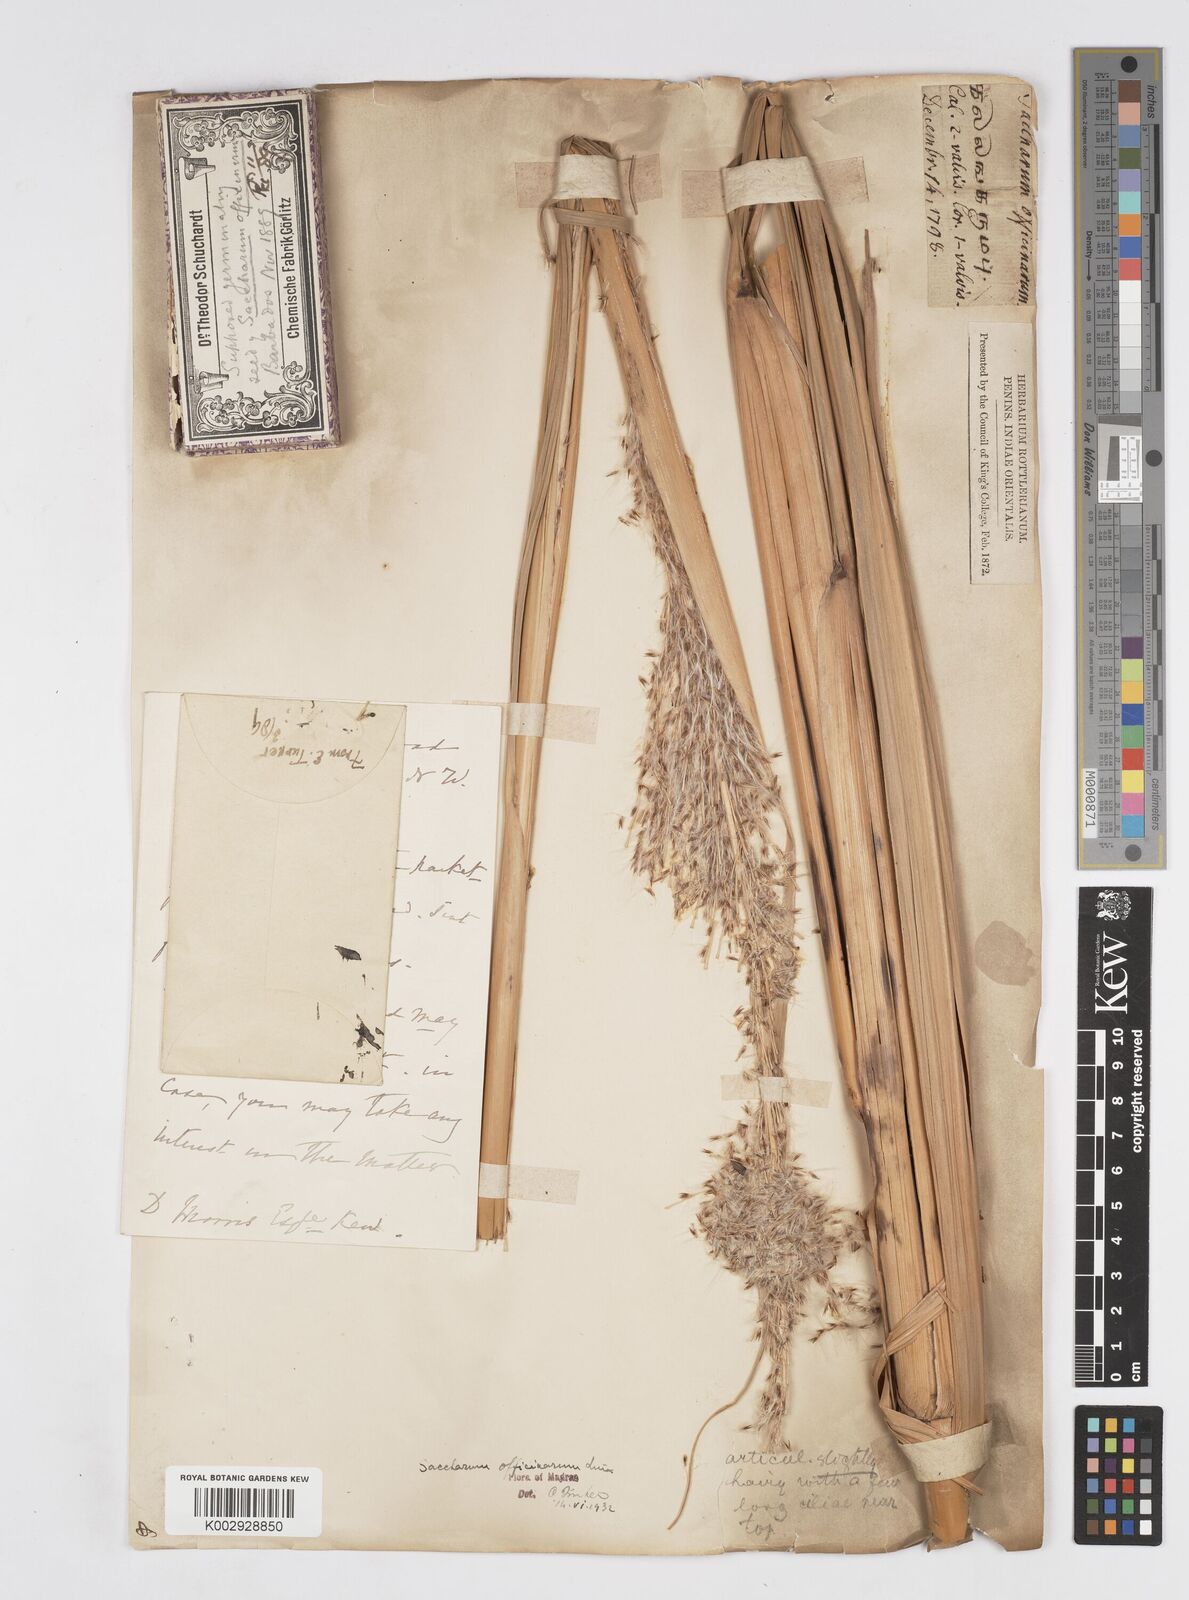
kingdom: Plantae
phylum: Tracheophyta
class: Liliopsida
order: Poales
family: Poaceae
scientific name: Poaceae
